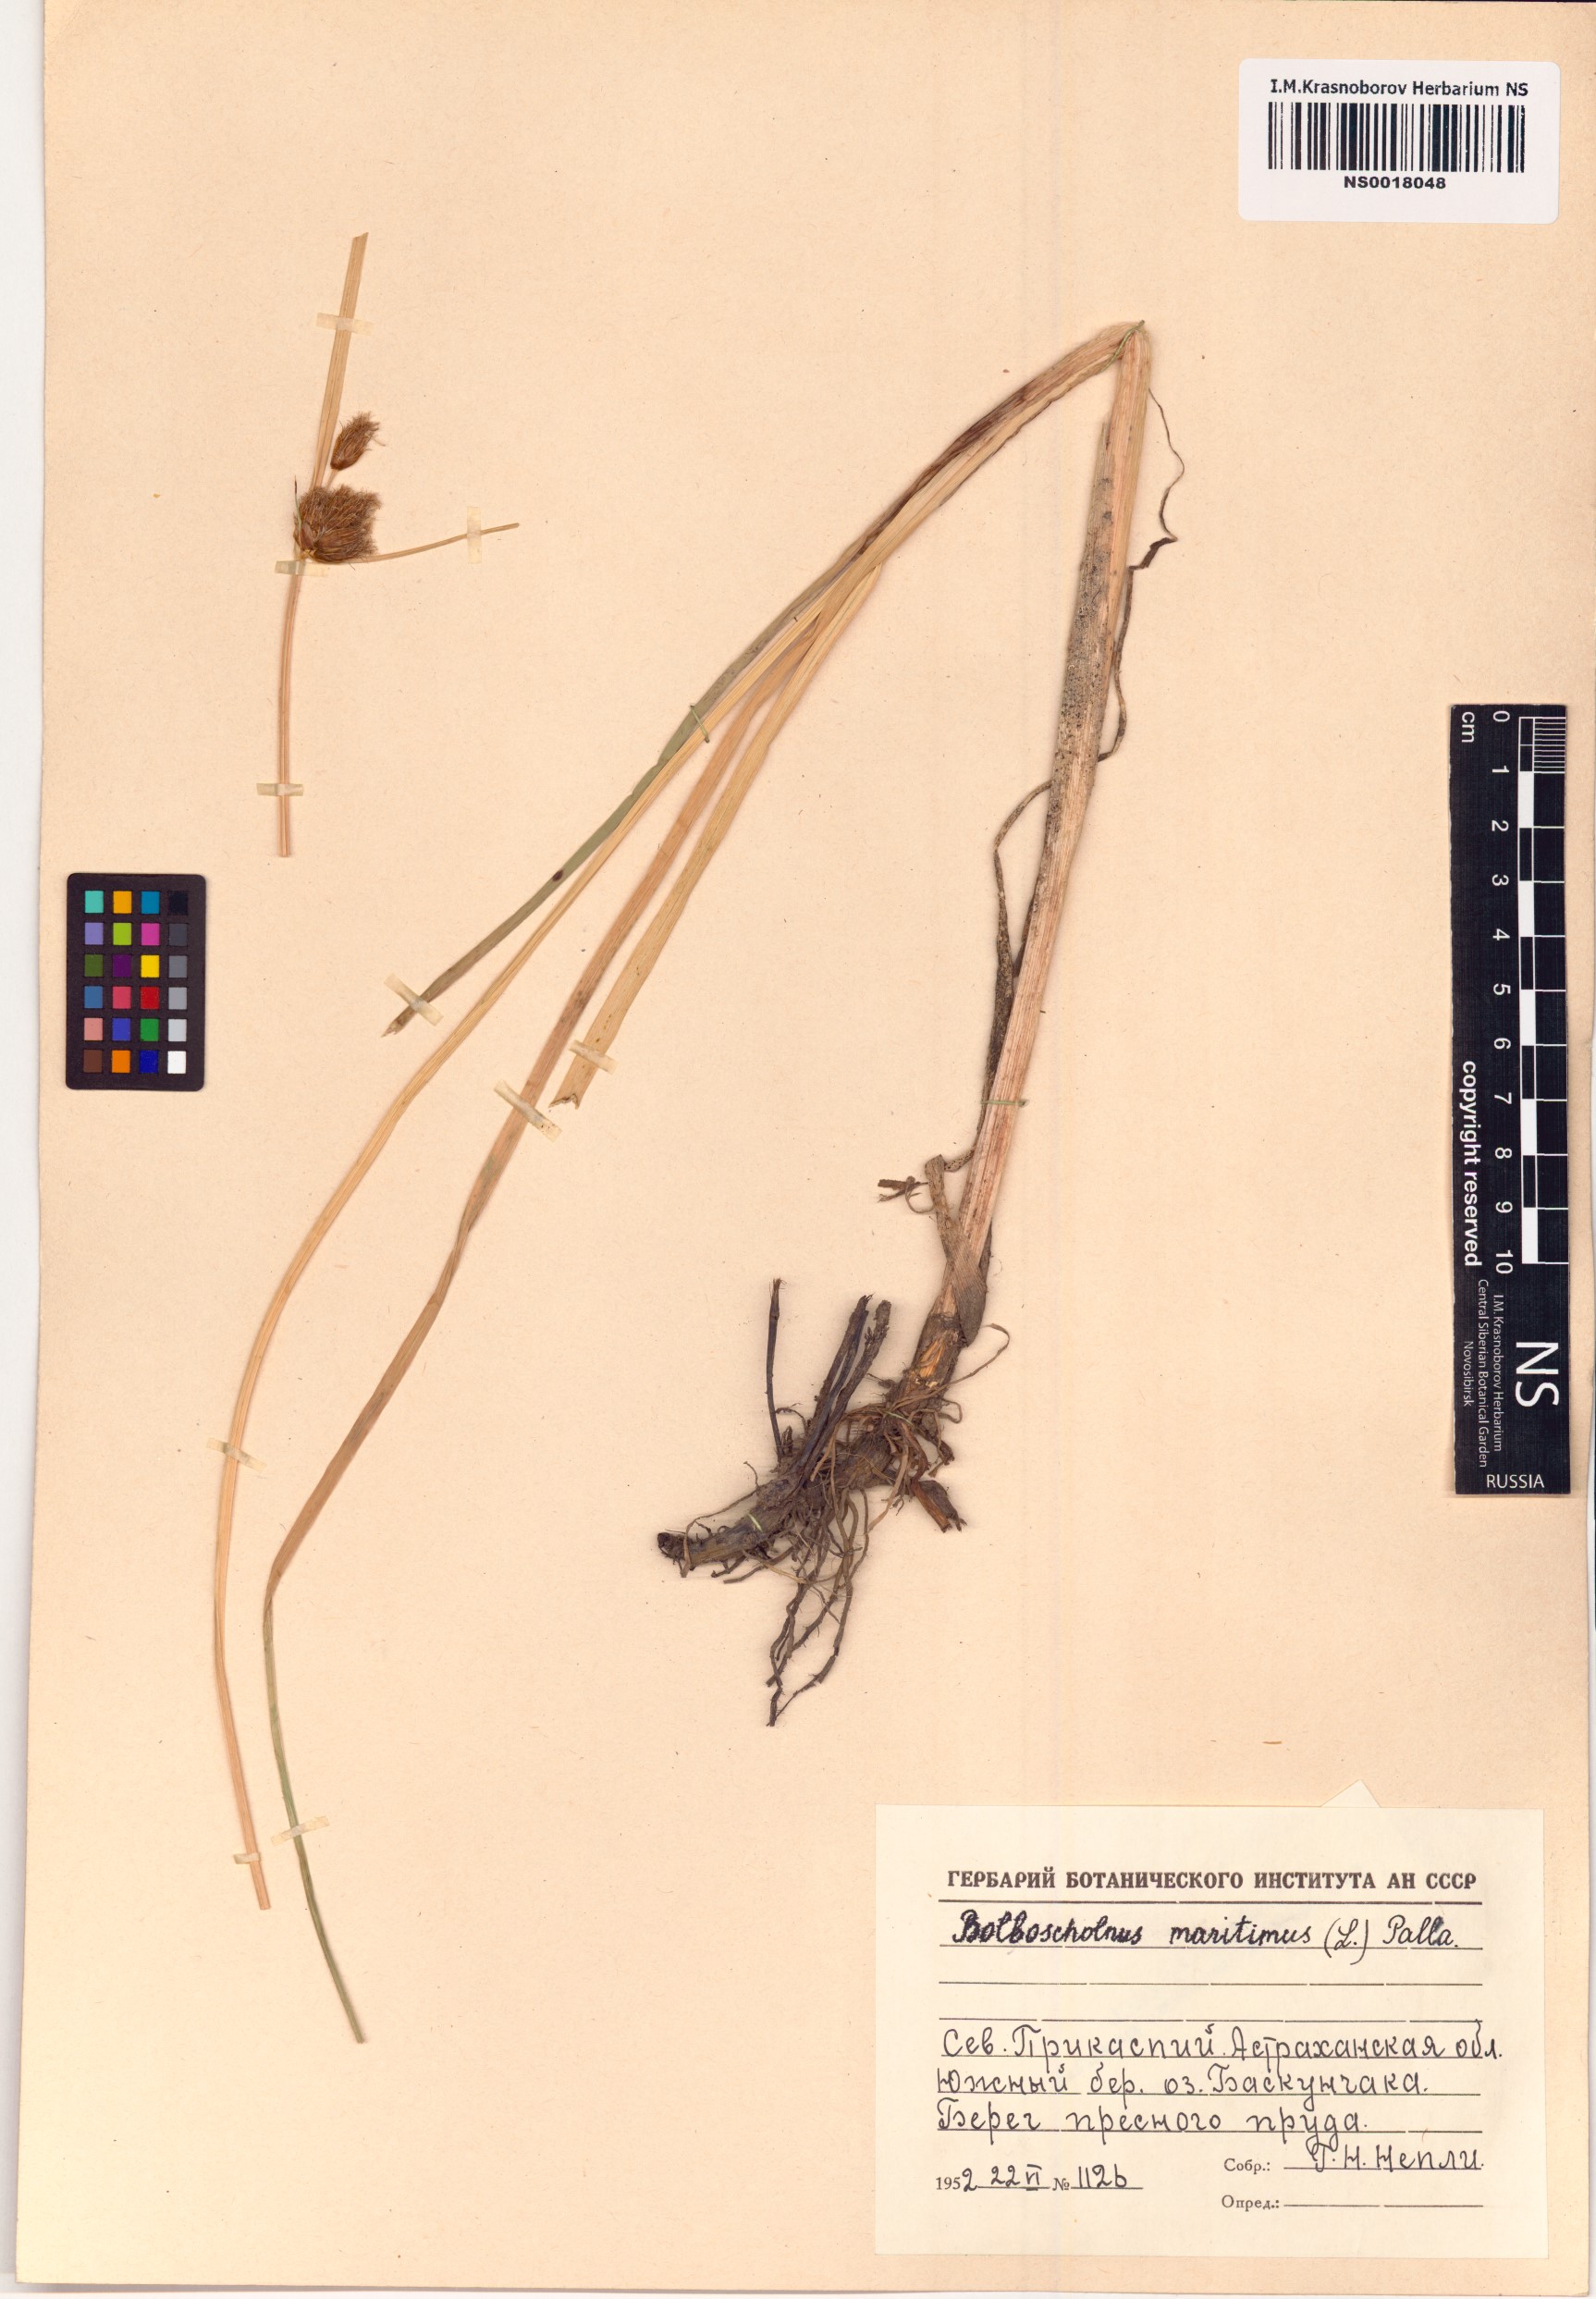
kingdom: Plantae
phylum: Tracheophyta
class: Liliopsida
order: Poales
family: Cyperaceae
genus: Bolboschoenus
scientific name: Bolboschoenus maritimus
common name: Sea club-rush
